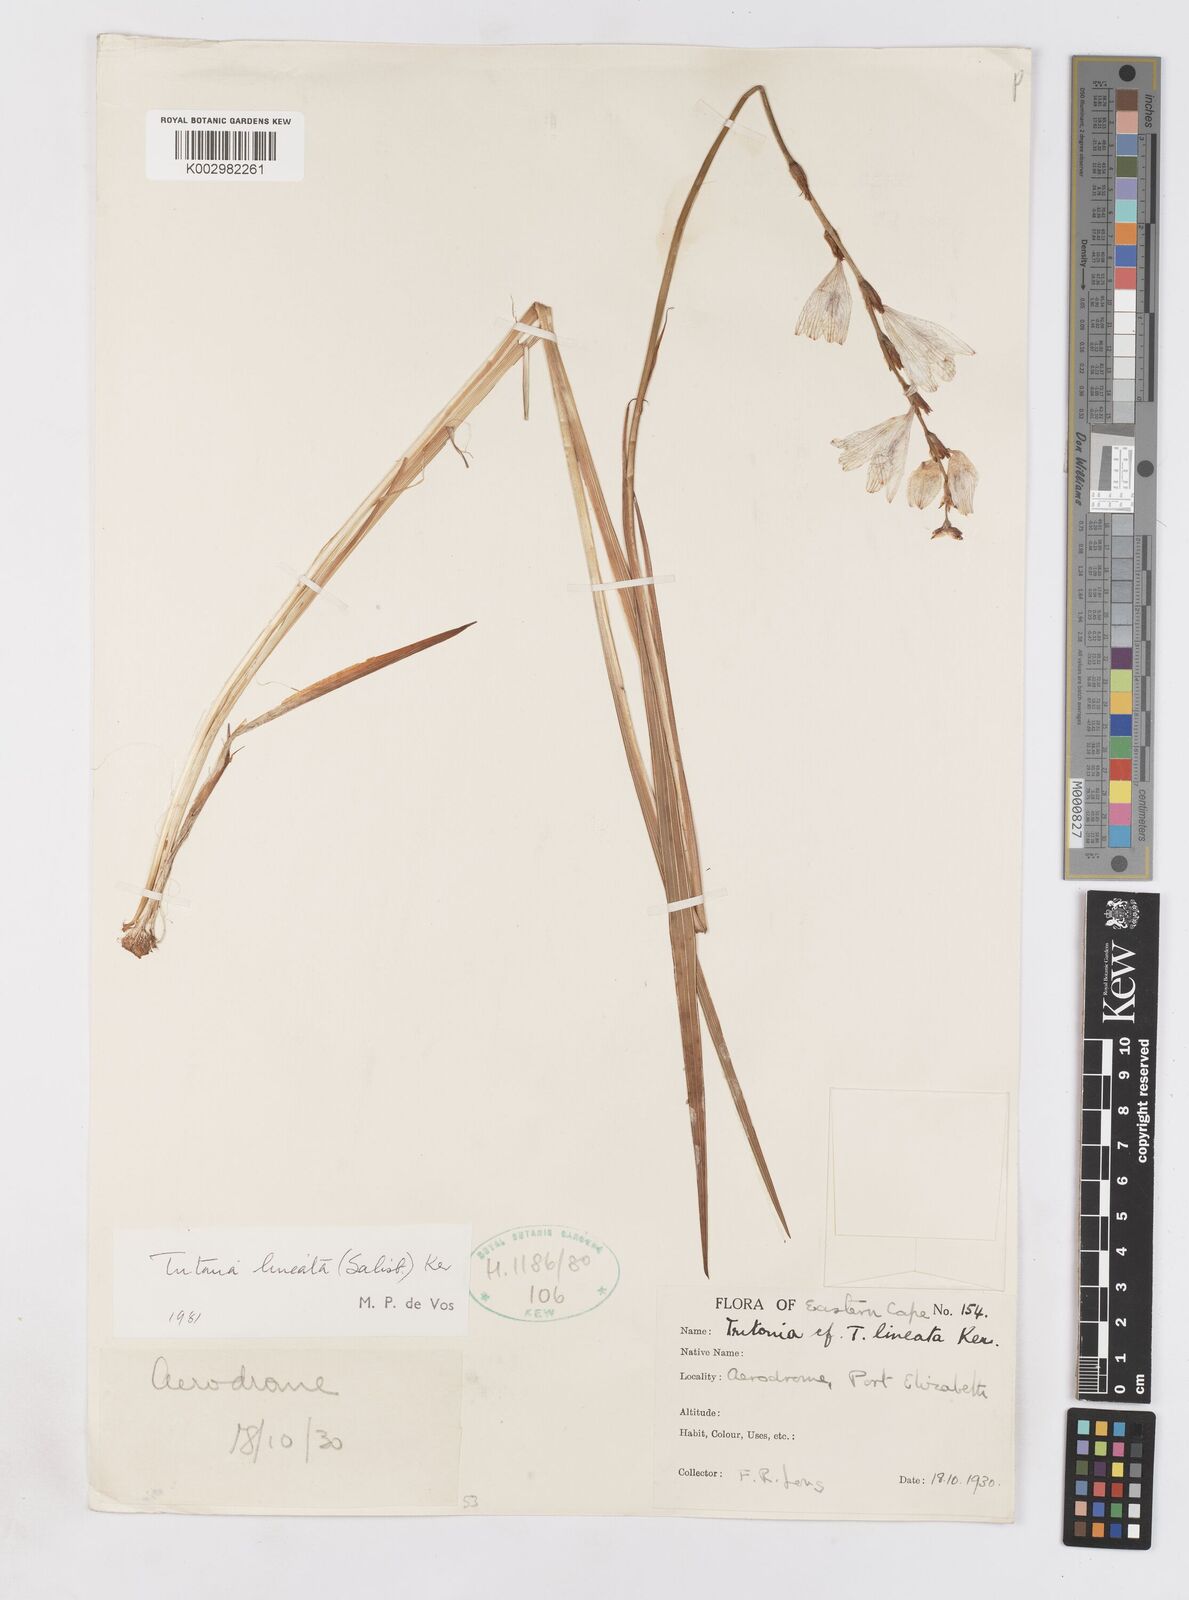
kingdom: Plantae
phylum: Tracheophyta
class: Liliopsida
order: Asparagales
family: Iridaceae
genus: Tritonia
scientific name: Tritonia gladiolaris
